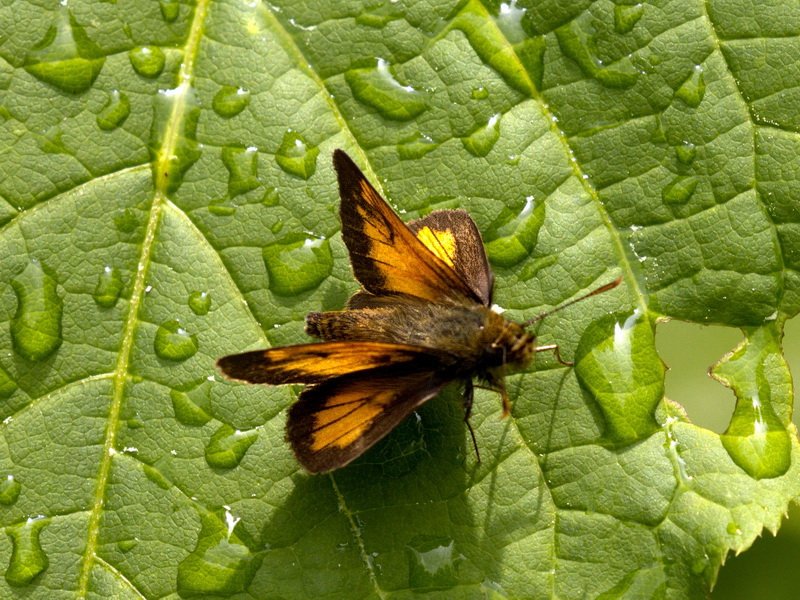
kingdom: Animalia
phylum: Arthropoda
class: Insecta
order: Lepidoptera
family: Hesperiidae
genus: Lon
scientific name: Lon hobomok
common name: Hobomok Skipper
